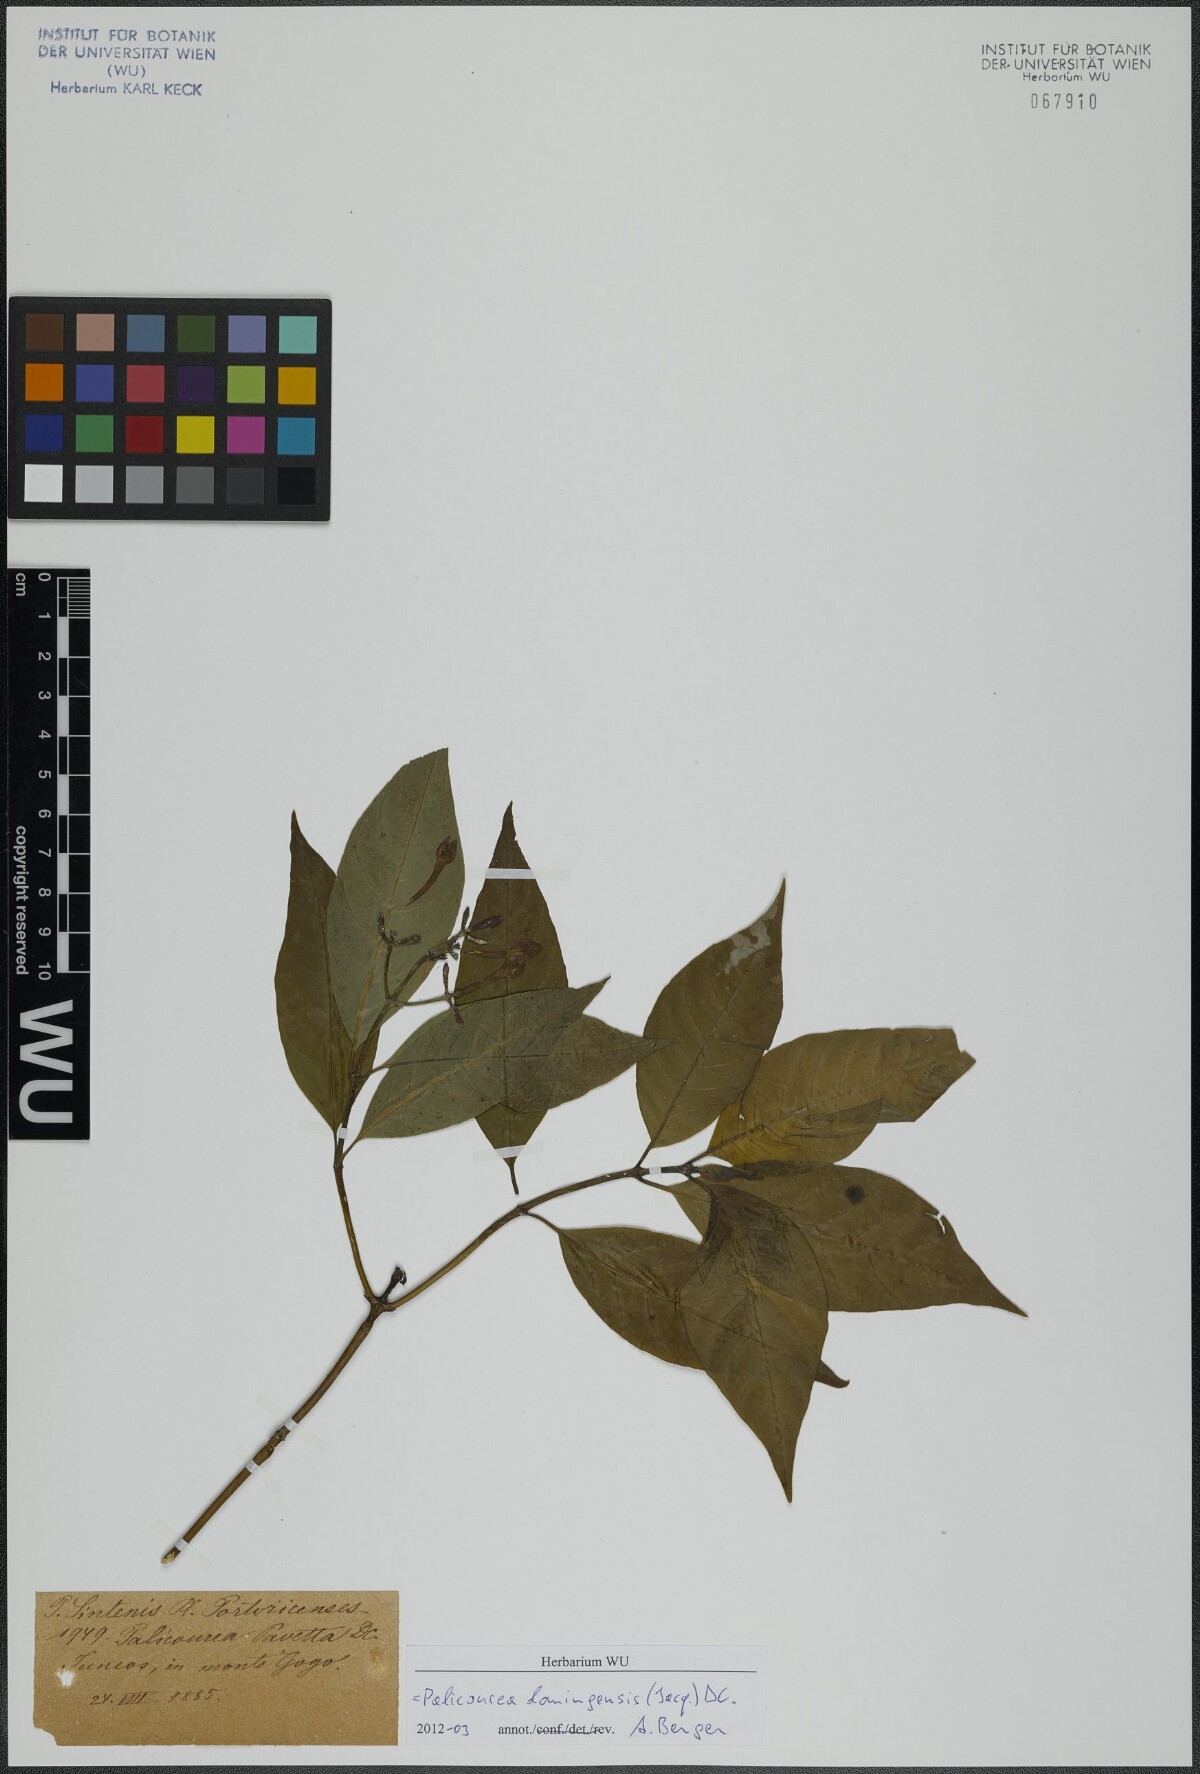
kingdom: Plantae
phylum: Tracheophyta
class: Magnoliopsida
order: Gentianales
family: Rubiaceae
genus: Palicourea
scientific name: Palicourea domingensis
